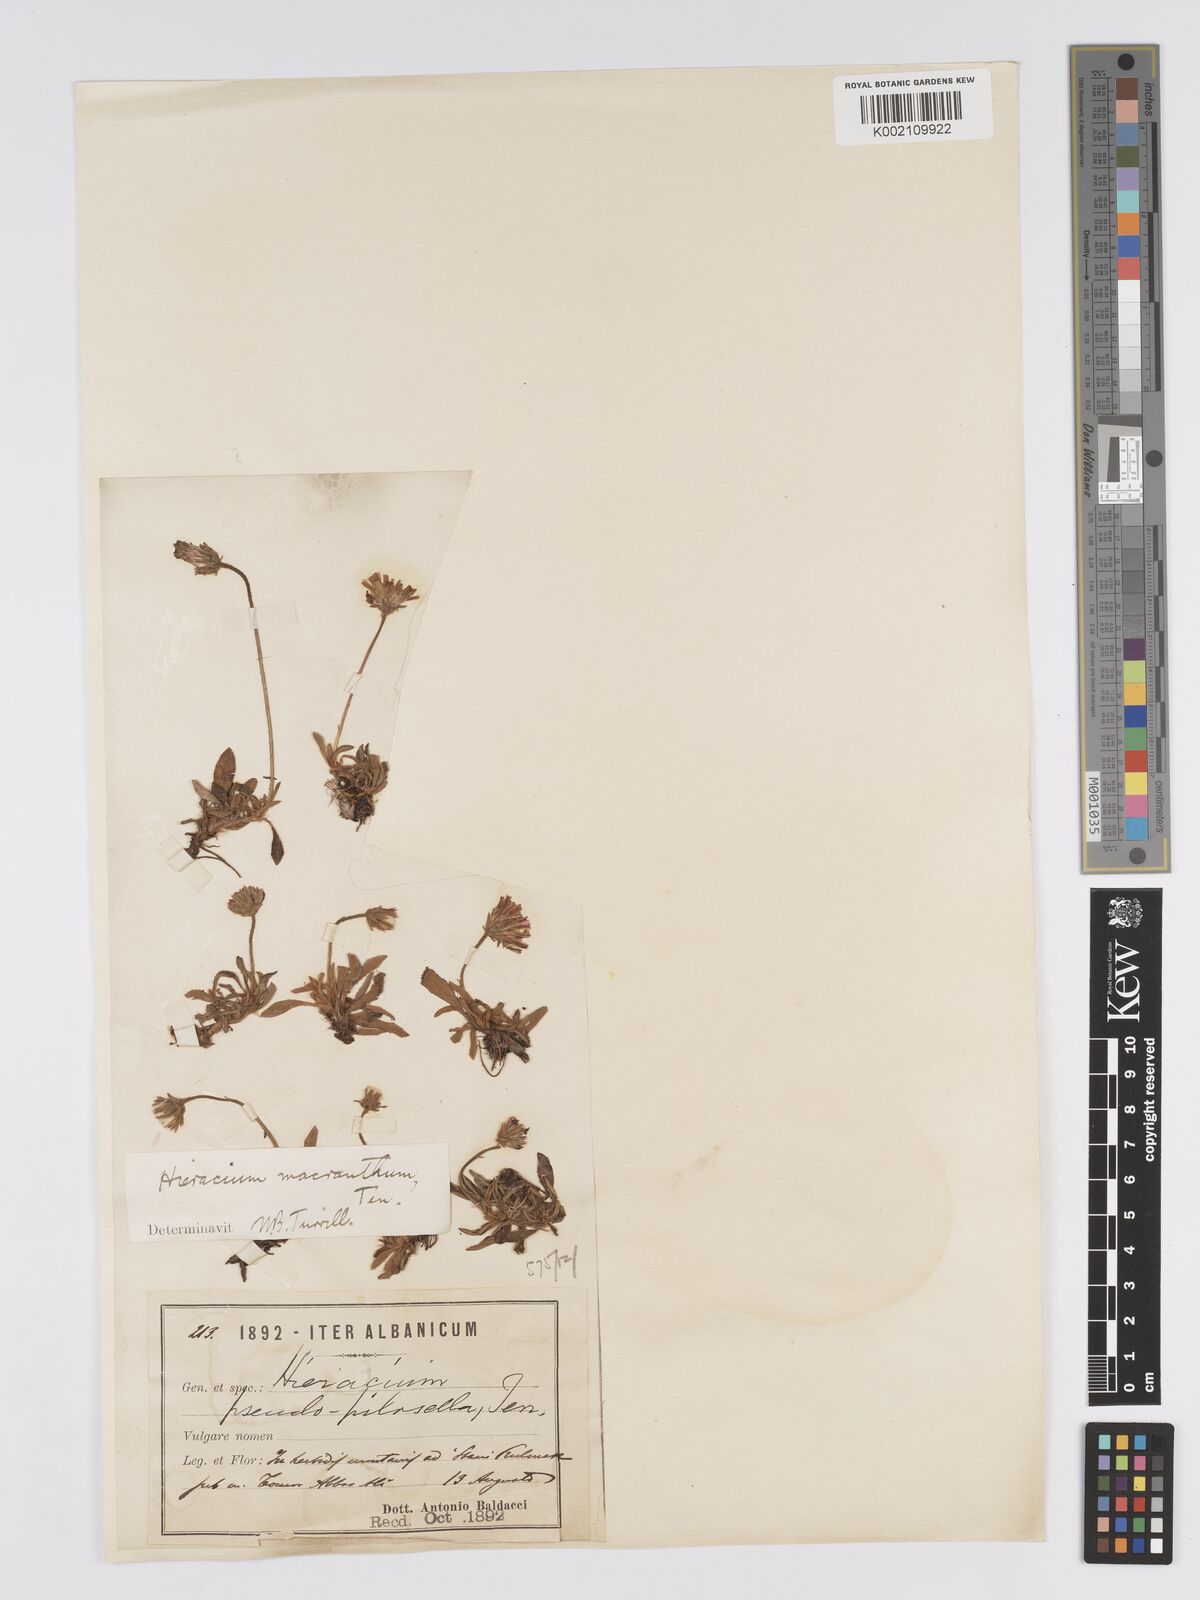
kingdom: Plantae
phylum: Tracheophyta
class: Magnoliopsida
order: Asterales
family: Asteraceae
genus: Pilosella
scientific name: Pilosella hoppeana
